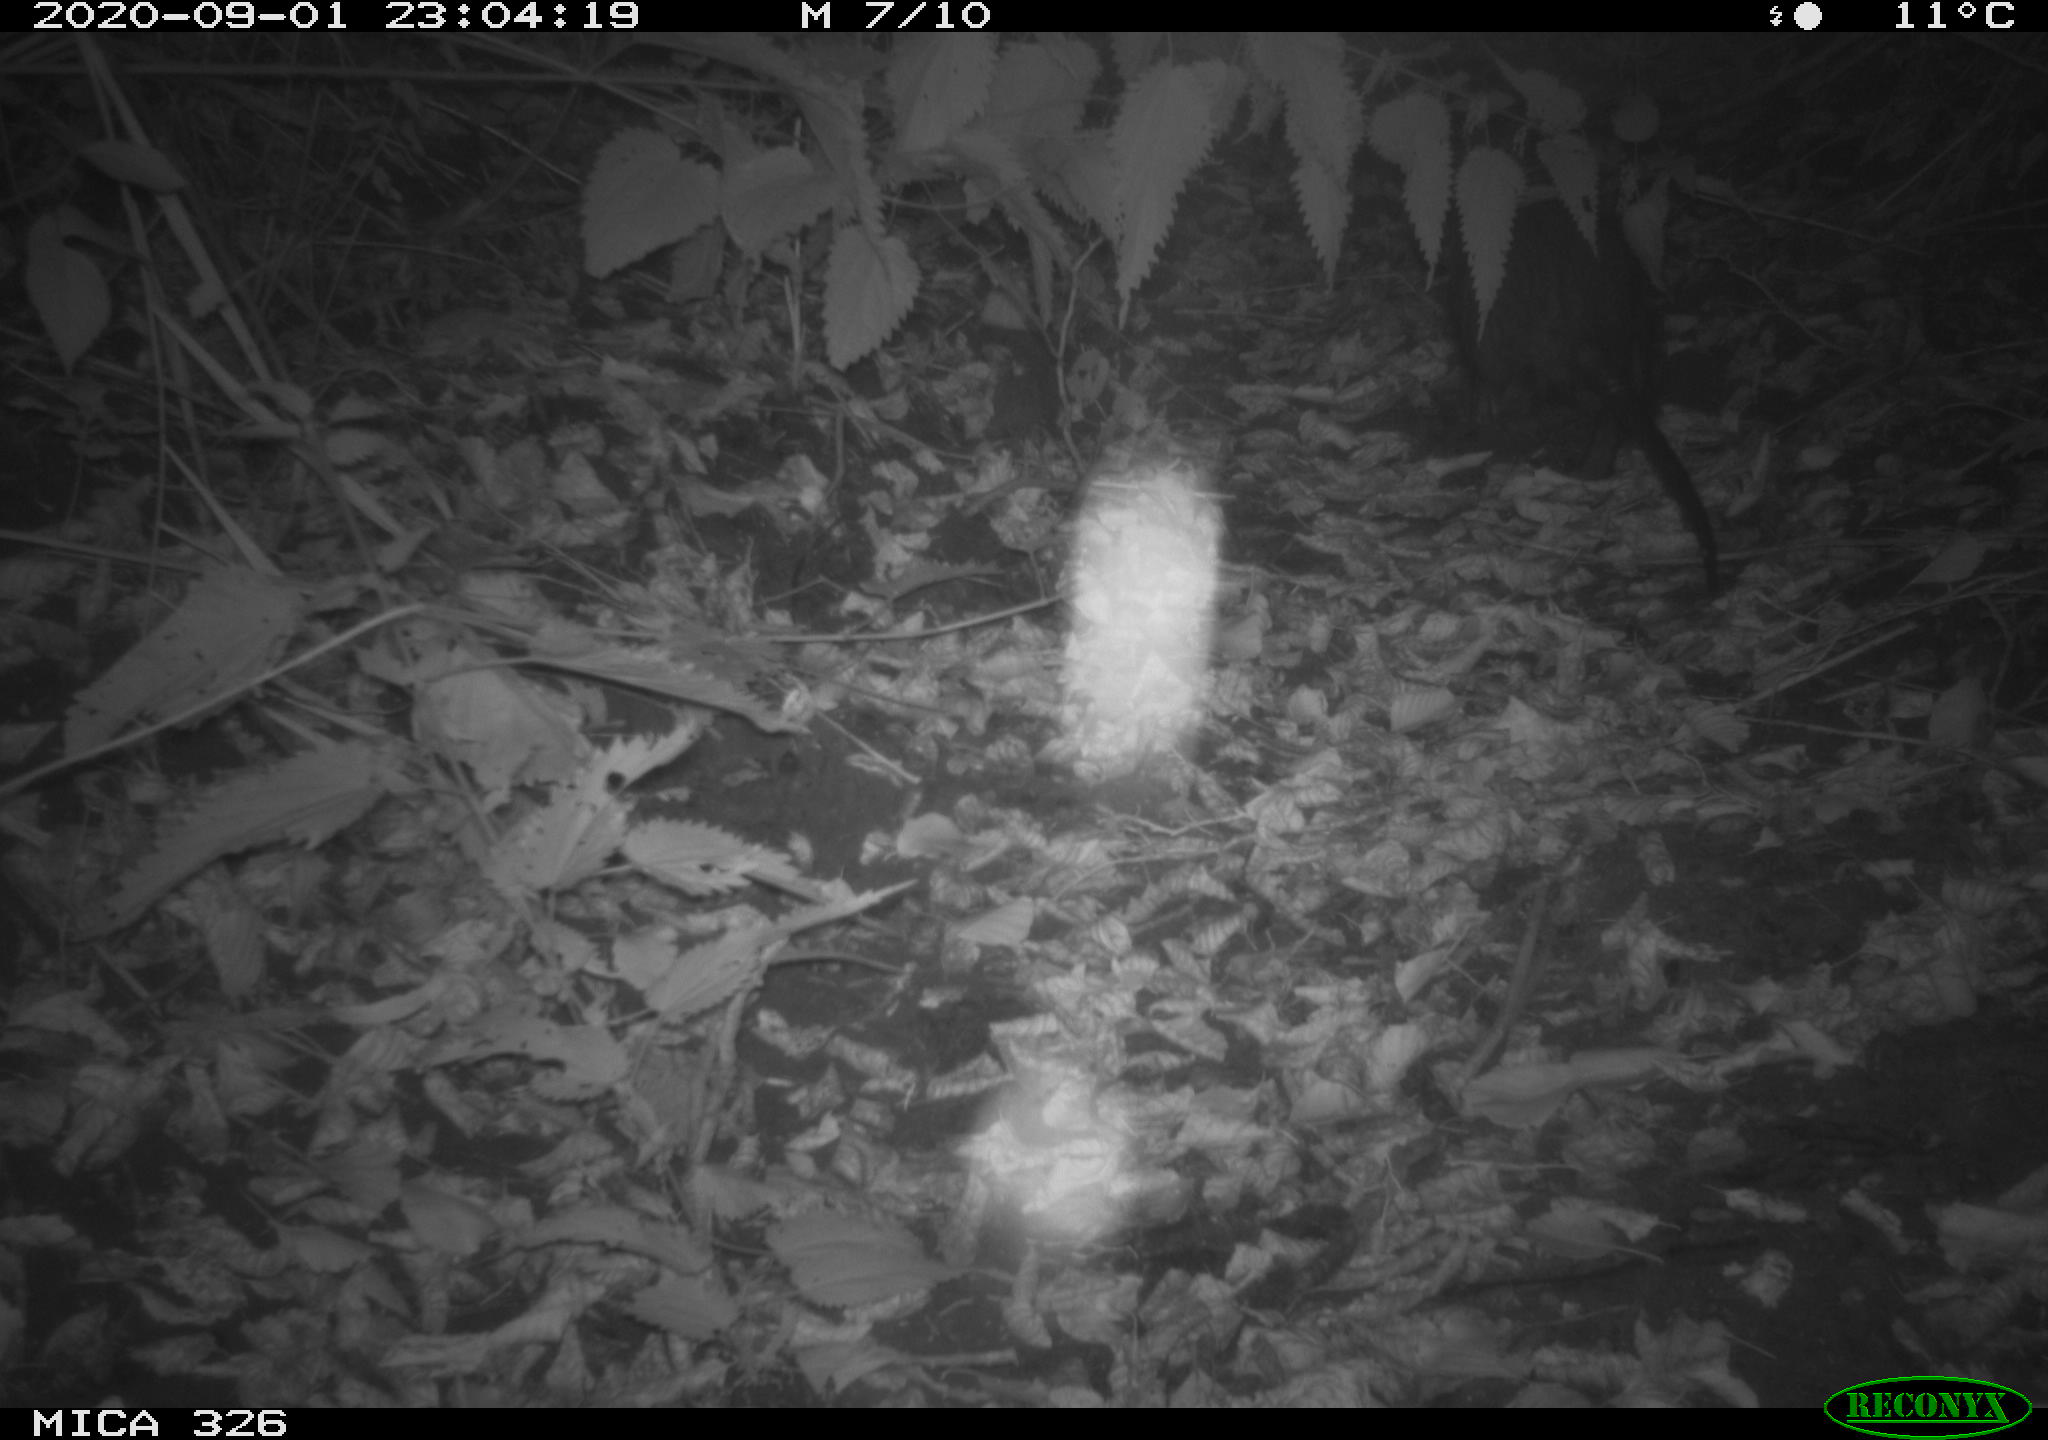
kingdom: Animalia
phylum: Chordata
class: Mammalia
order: Rodentia
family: Myocastoridae
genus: Myocastor
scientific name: Myocastor coypus
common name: Coypu
